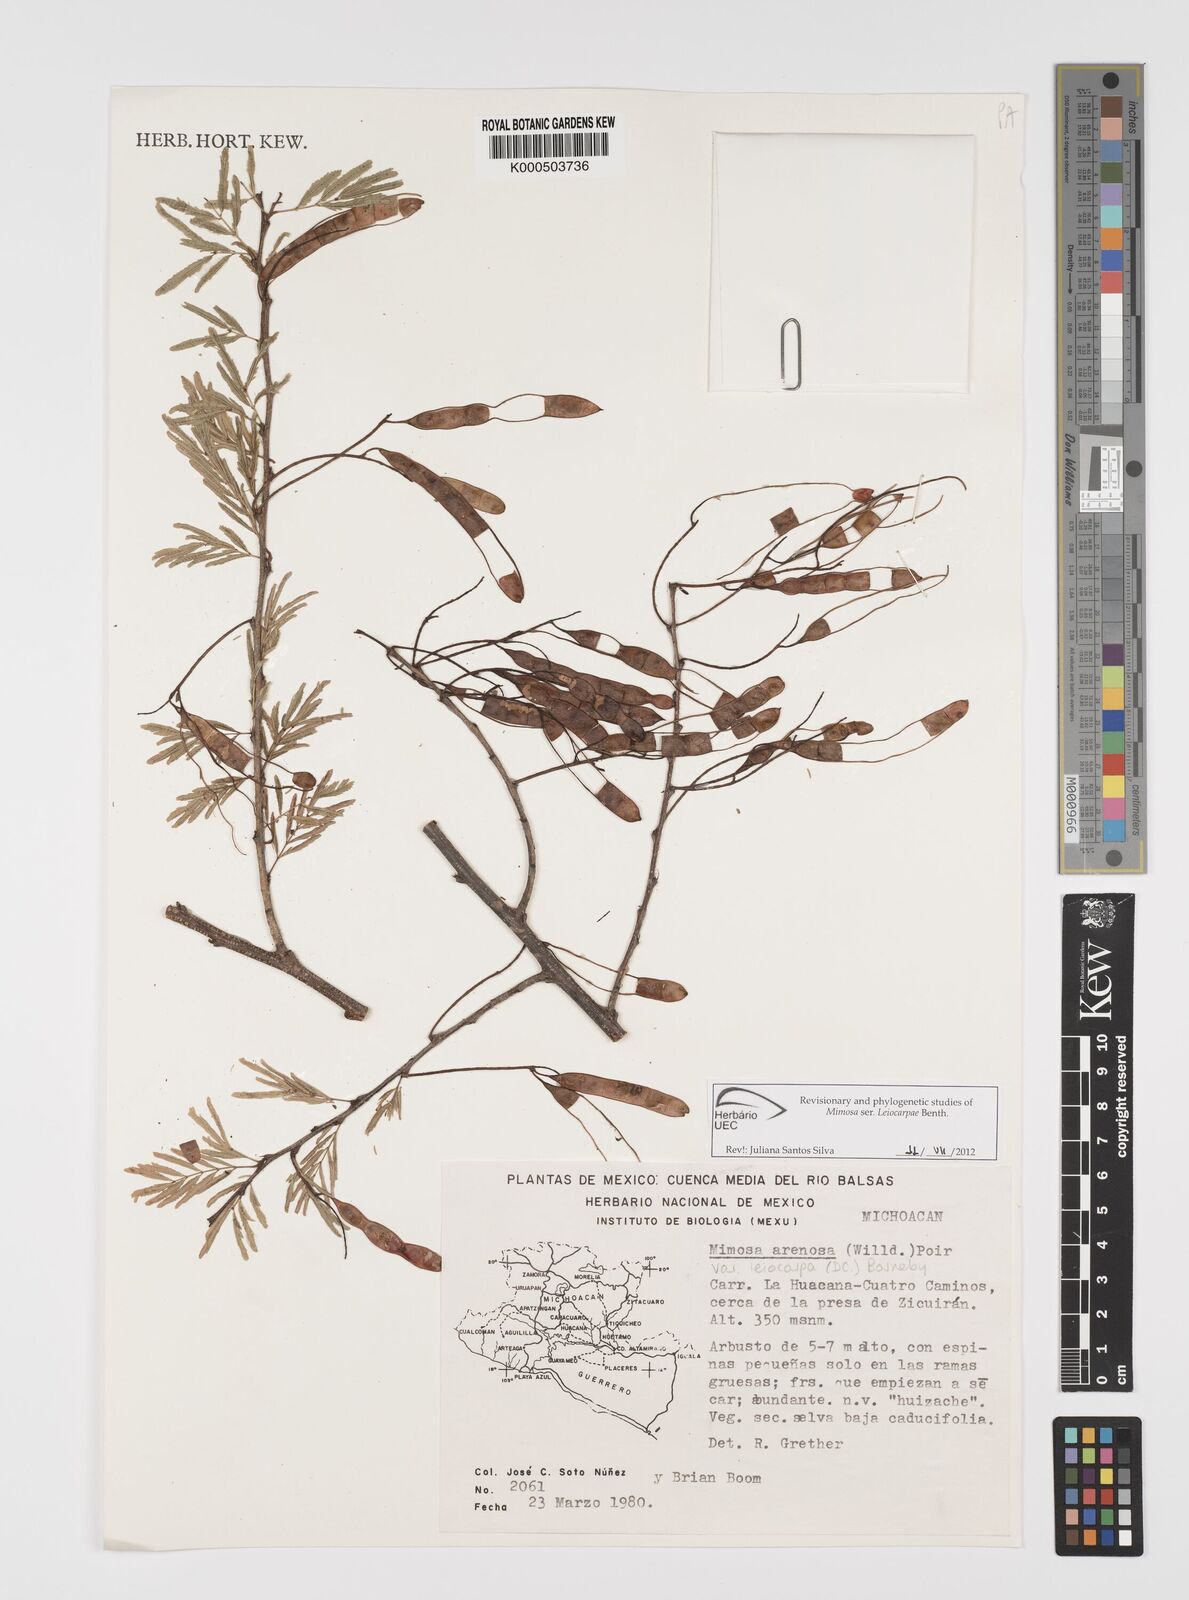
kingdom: Plantae
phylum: Tracheophyta
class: Magnoliopsida
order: Fabales
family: Fabaceae
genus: Mimosa
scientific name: Mimosa arenosa
